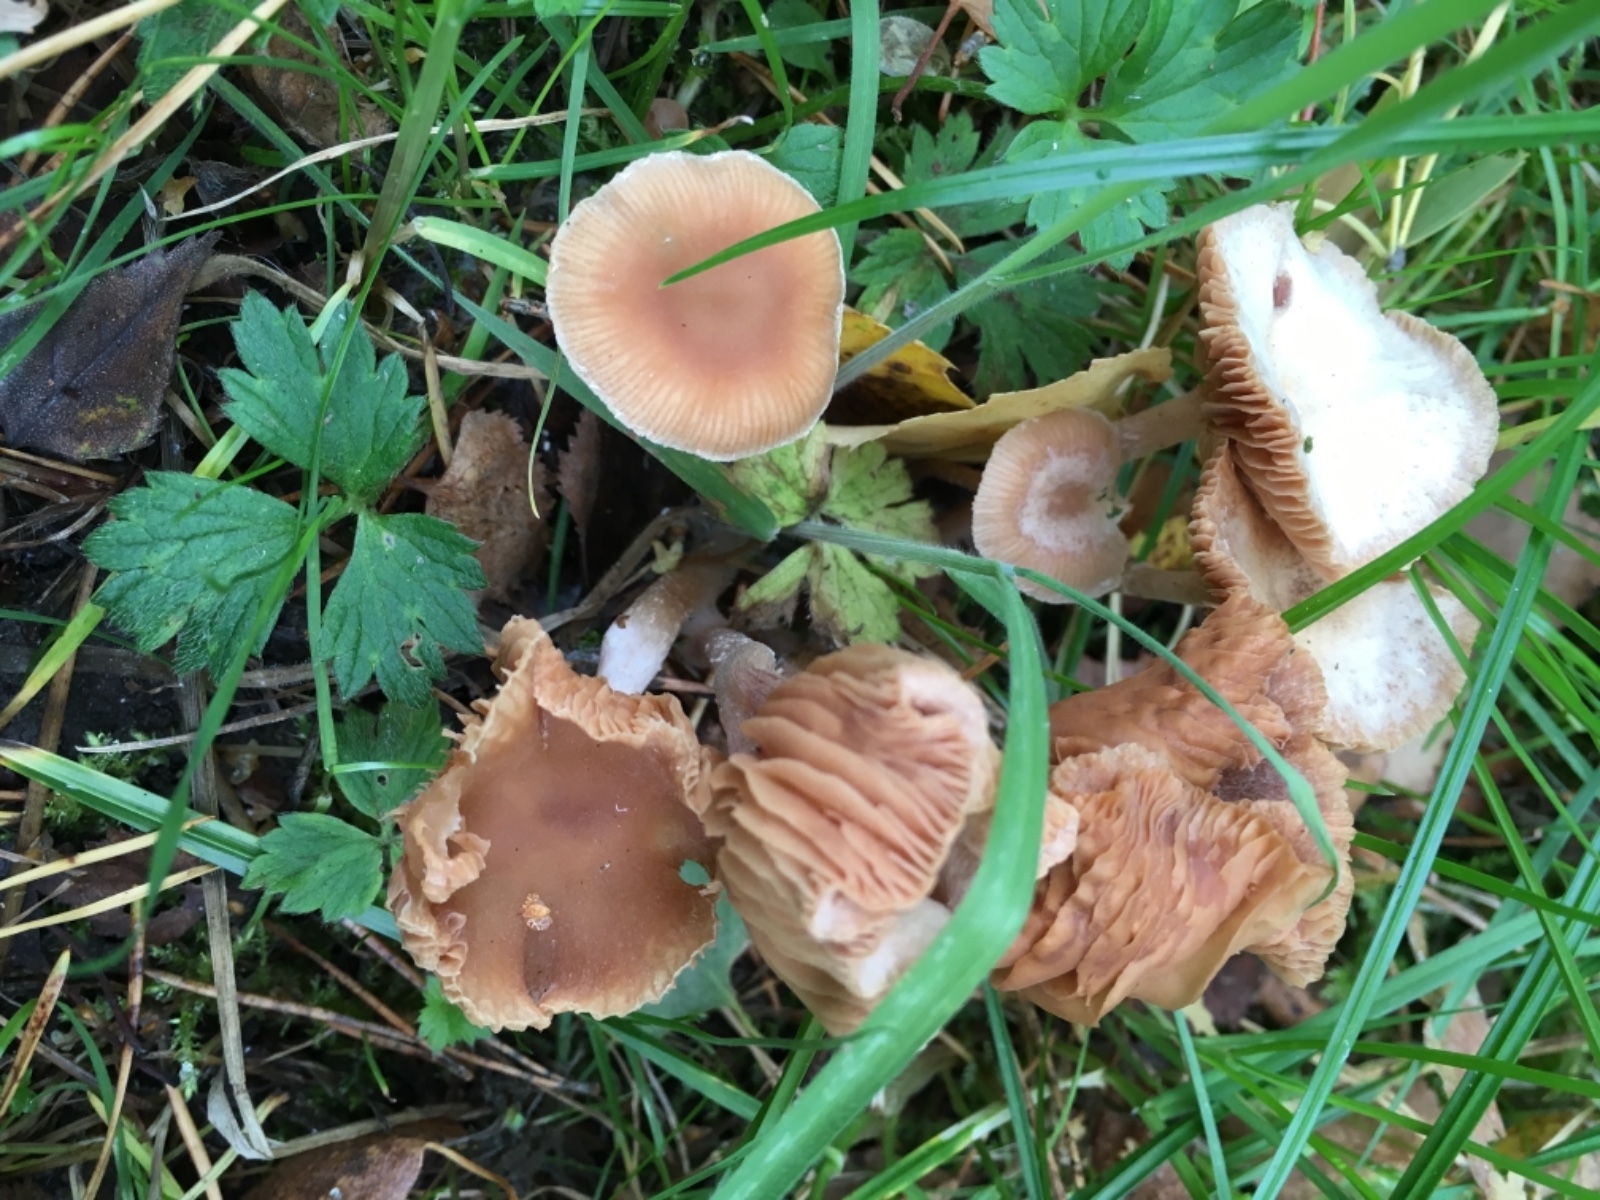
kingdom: Fungi
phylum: Basidiomycota
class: Agaricomycetes
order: Agaricales
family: Tubariaceae
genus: Tubaria
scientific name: Tubaria furfuracea
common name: kliddet fnughat
